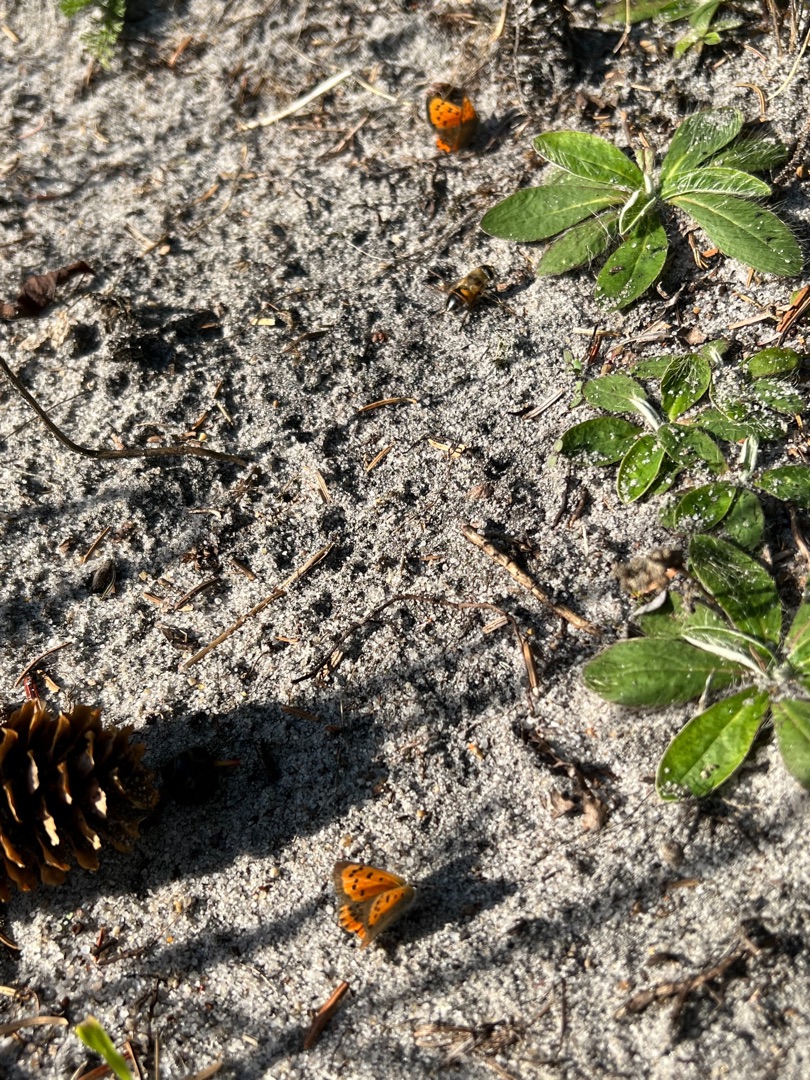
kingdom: Animalia
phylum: Arthropoda
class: Insecta
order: Lepidoptera
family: Lycaenidae
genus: Lycaena
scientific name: Lycaena phlaeas
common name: Lille ildfugl
